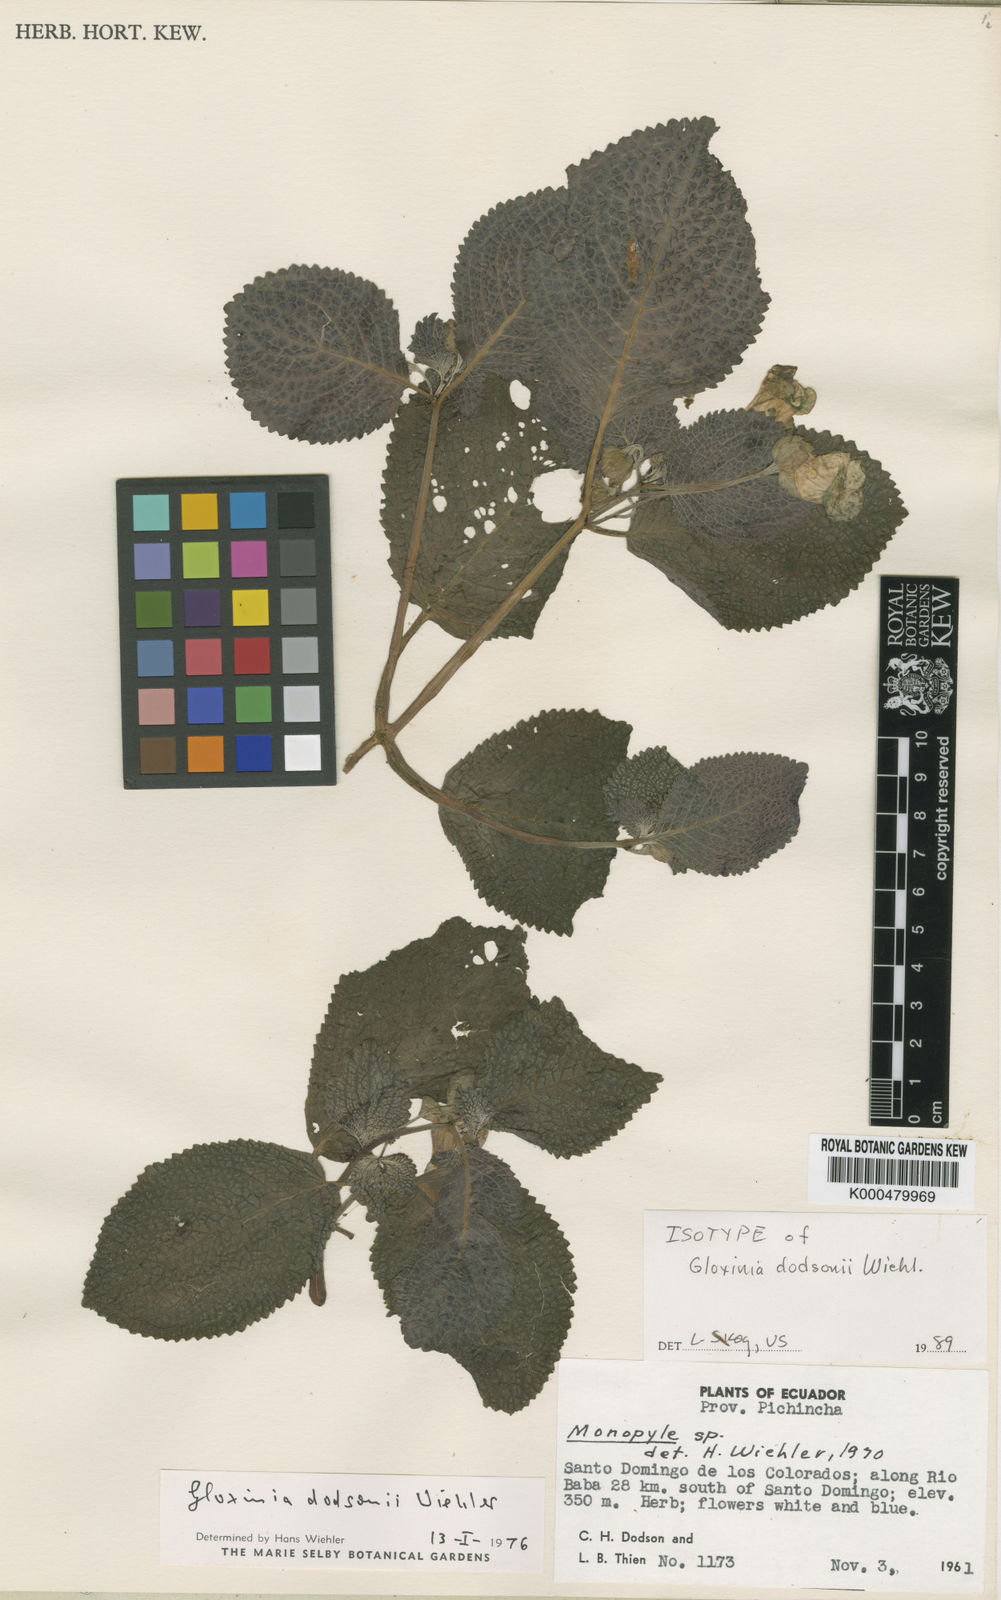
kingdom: Plantae
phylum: Tracheophyta
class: Magnoliopsida
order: Lamiales
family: Gesneriaceae
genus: Nomopyle
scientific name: Nomopyle dodsonii
